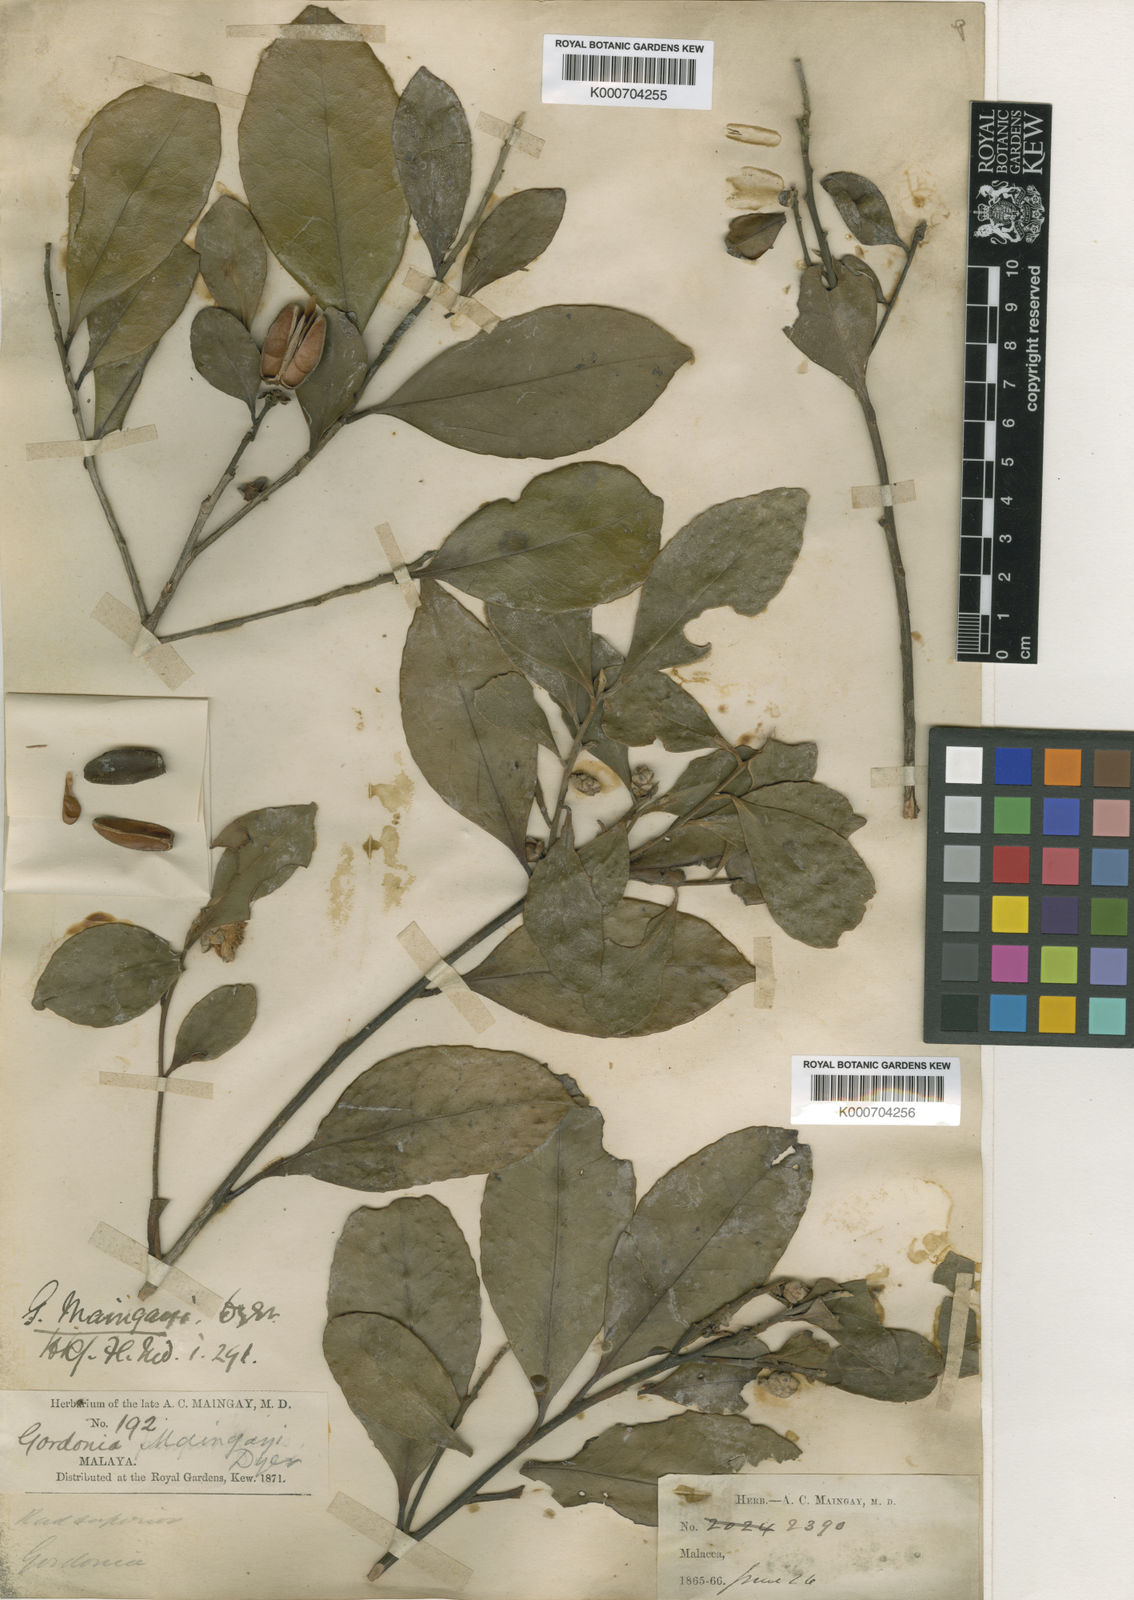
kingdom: Plantae
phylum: Tracheophyta
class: Magnoliopsida
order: Ericales
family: Theaceae
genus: Polyspora
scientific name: Polyspora maingayi
